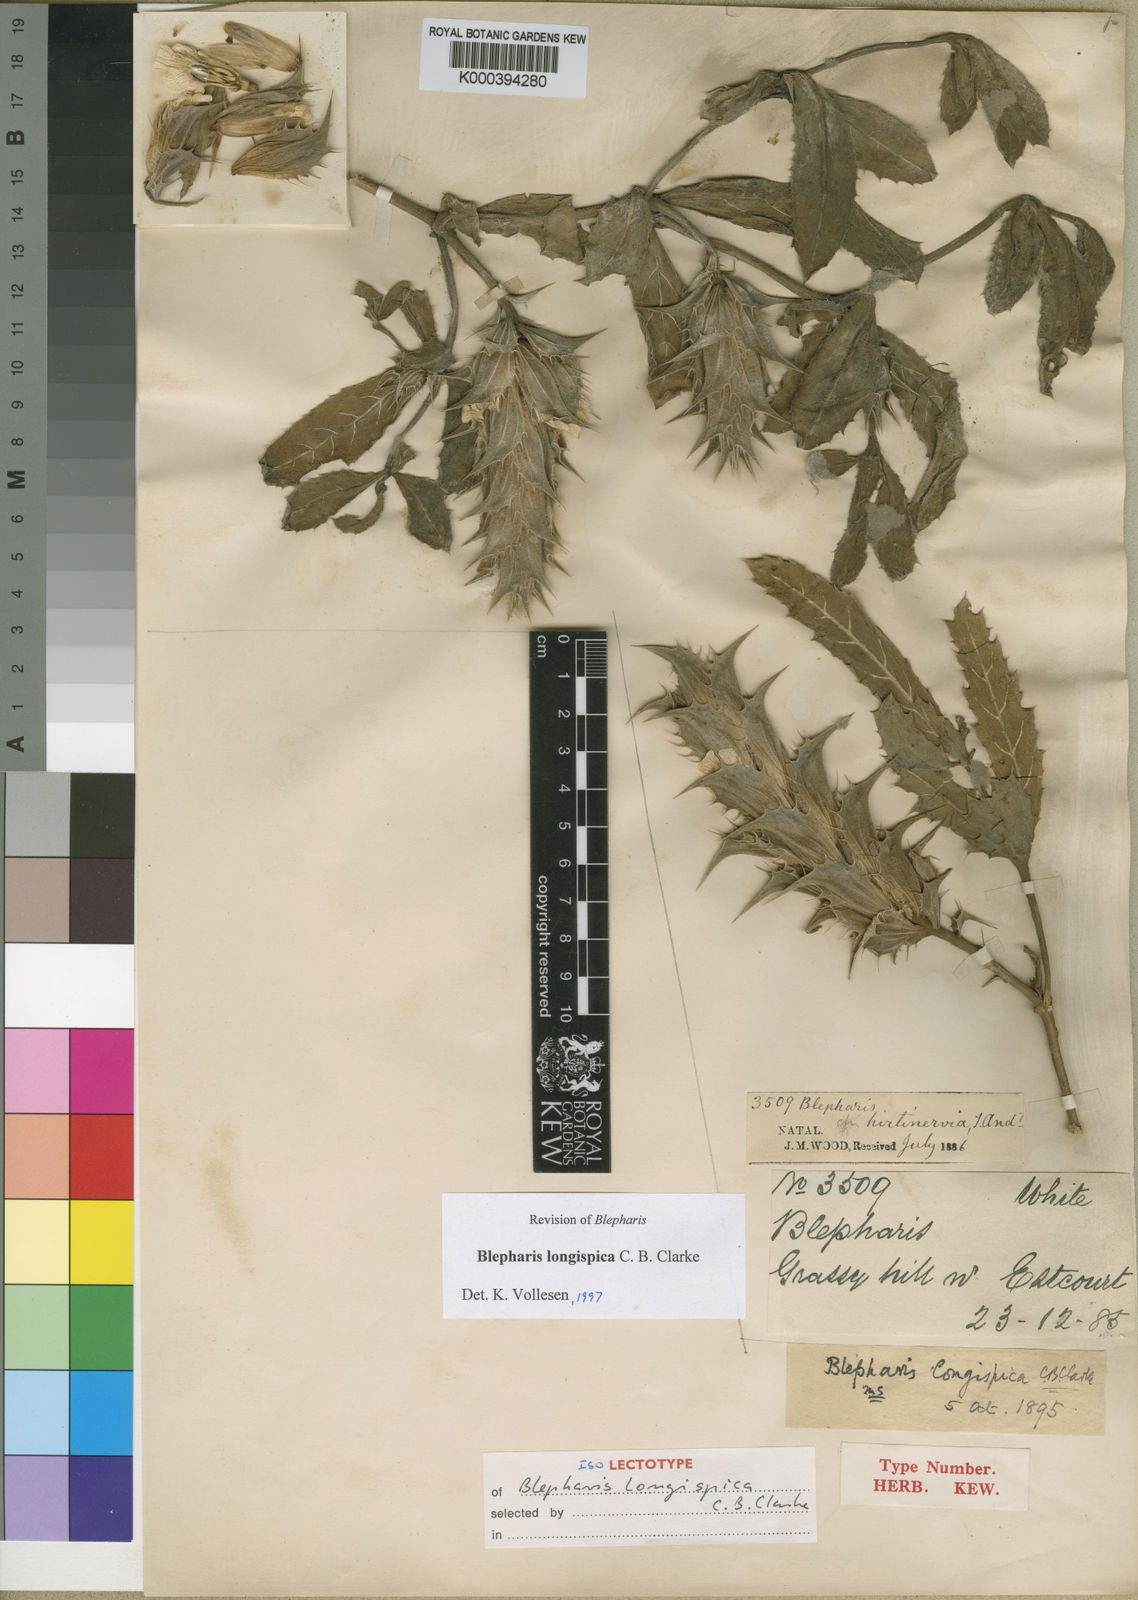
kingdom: Plantae
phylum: Tracheophyta
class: Magnoliopsida
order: Lamiales
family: Acanthaceae
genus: Blepharis
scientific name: Blepharis longispica
